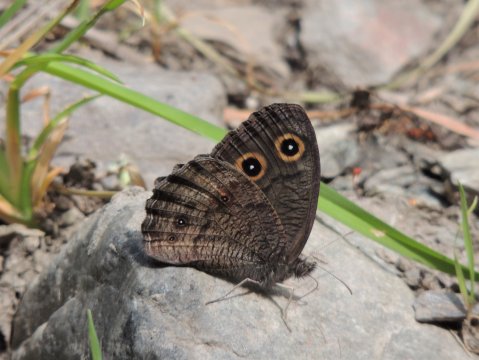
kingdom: Animalia
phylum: Arthropoda
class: Insecta
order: Lepidoptera
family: Nymphalidae
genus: Cercyonis
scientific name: Cercyonis pegala
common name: Common Wood-Nymph
